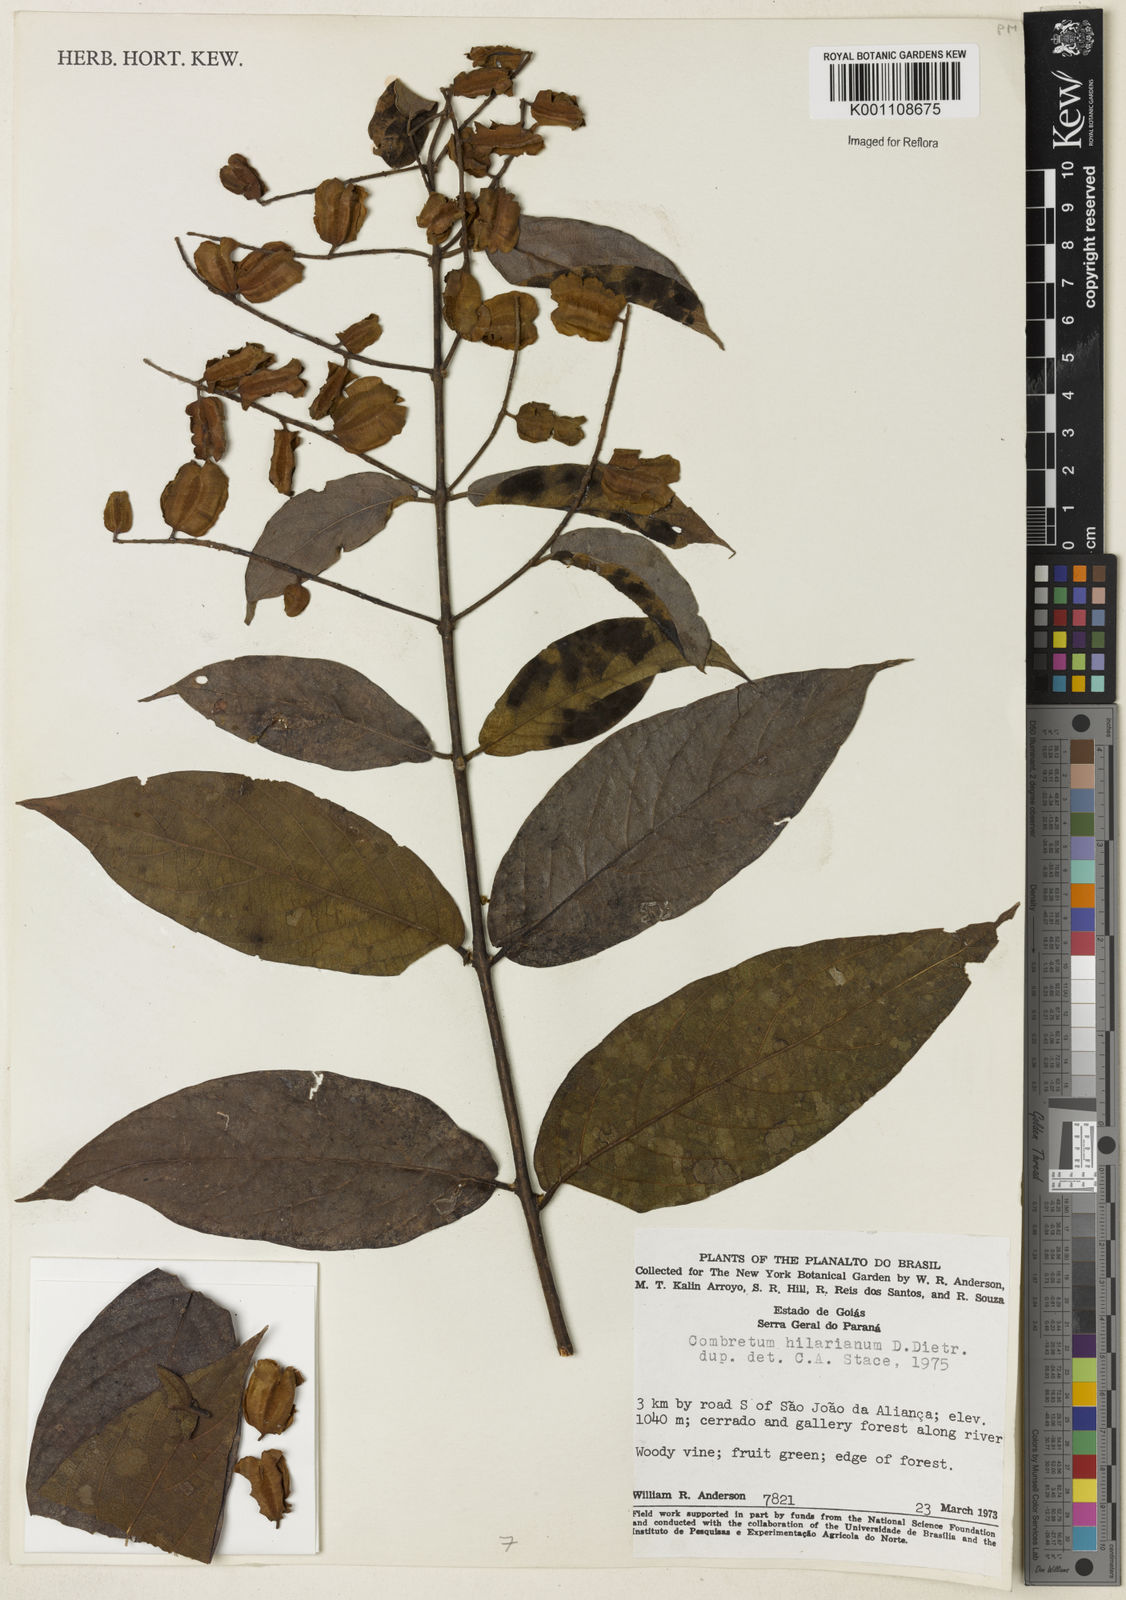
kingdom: Plantae
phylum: Tracheophyta
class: Magnoliopsida
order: Myrtales
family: Combretaceae
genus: Combretum
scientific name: Combretum hilarianum
